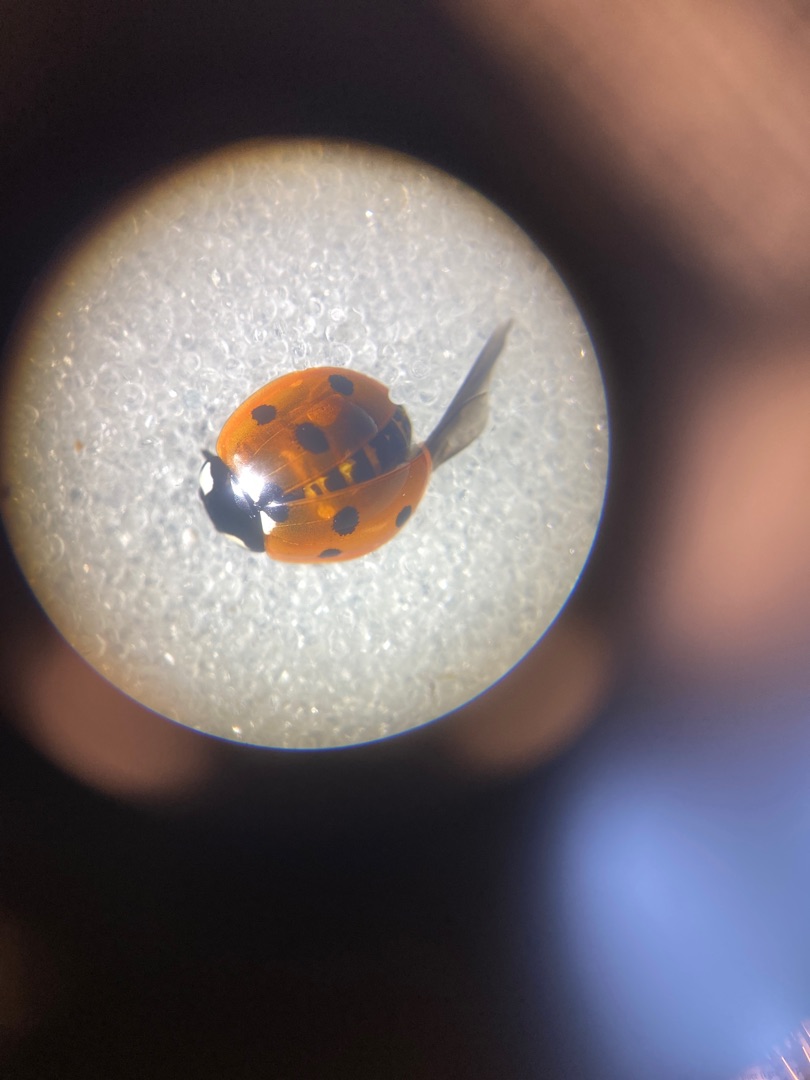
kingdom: Animalia
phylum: Arthropoda
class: Insecta
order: Coleoptera
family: Coccinellidae
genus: Coccinella
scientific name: Coccinella septempunctata
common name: Syvplettet mariehøne
